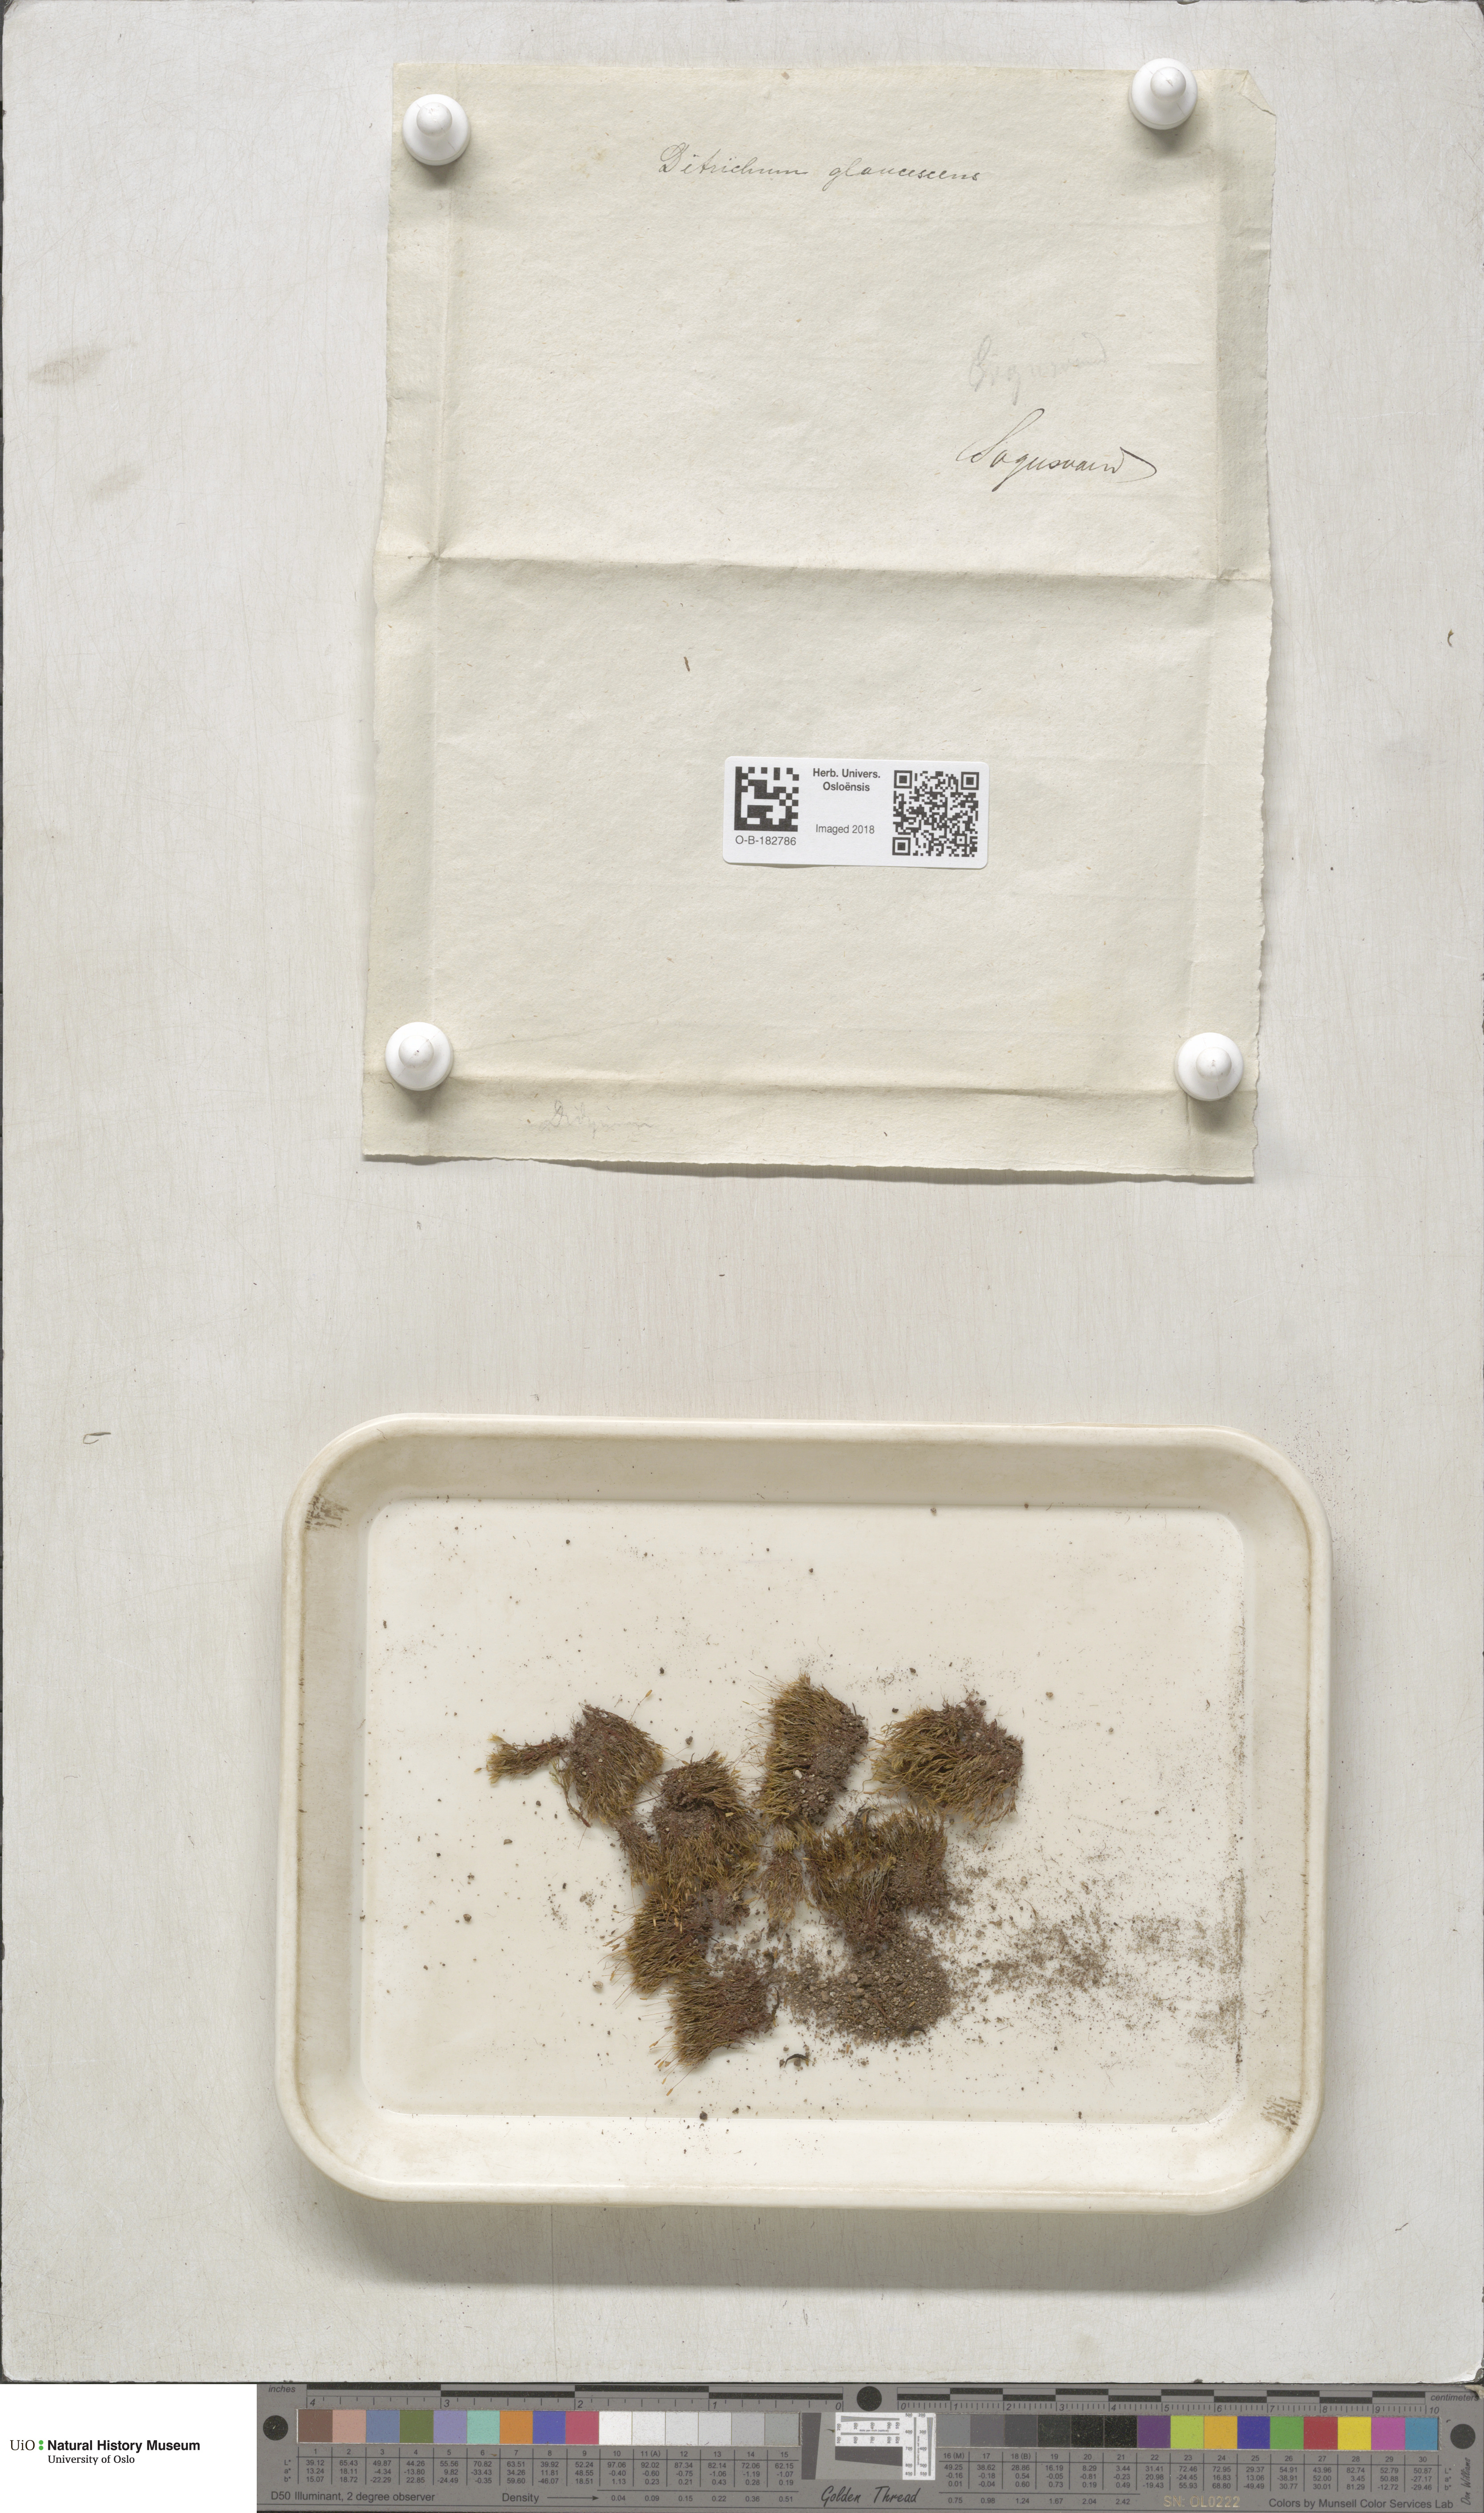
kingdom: Plantae
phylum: Bryophyta
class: Bryopsida
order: Grimmiales
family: Saelaniaceae
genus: Saelania
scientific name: Saelania glaucescens
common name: Blue dew-moss
